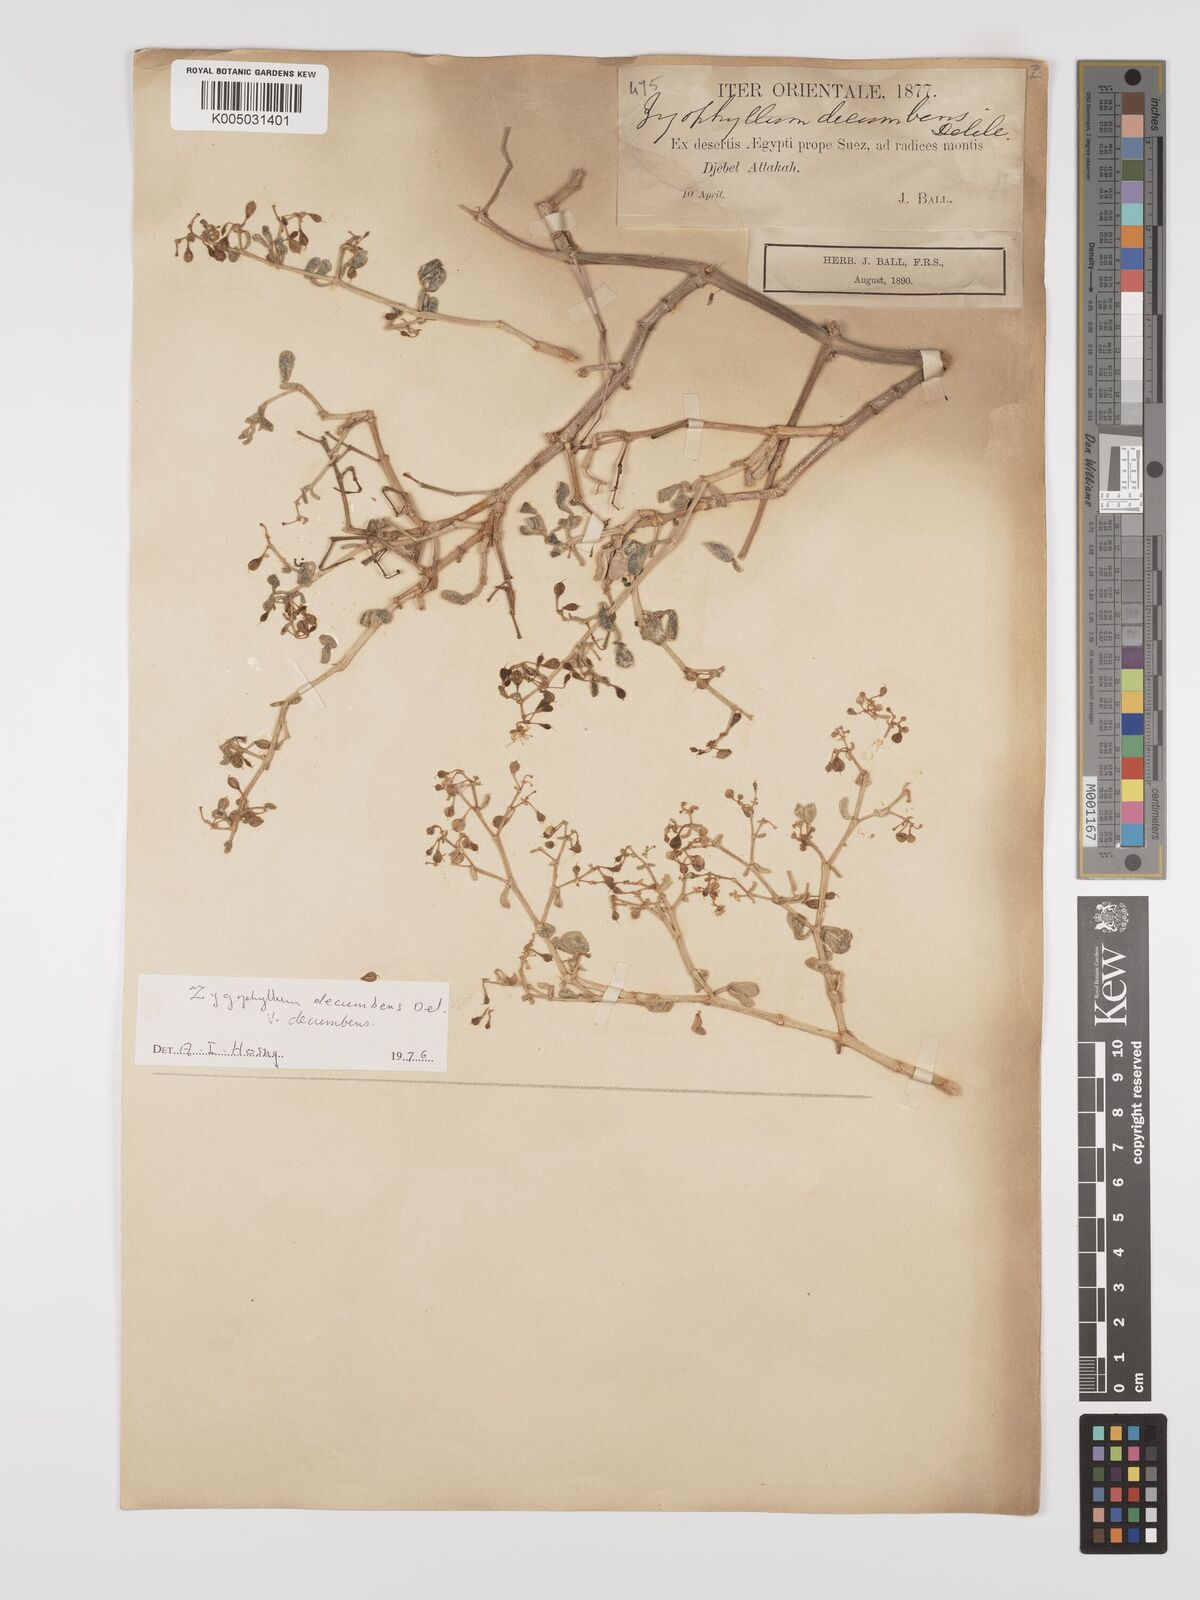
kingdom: Plantae
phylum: Tracheophyta
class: Magnoliopsida
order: Zygophyllales
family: Zygophyllaceae
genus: Tetraena
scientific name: Tetraena decumbens
